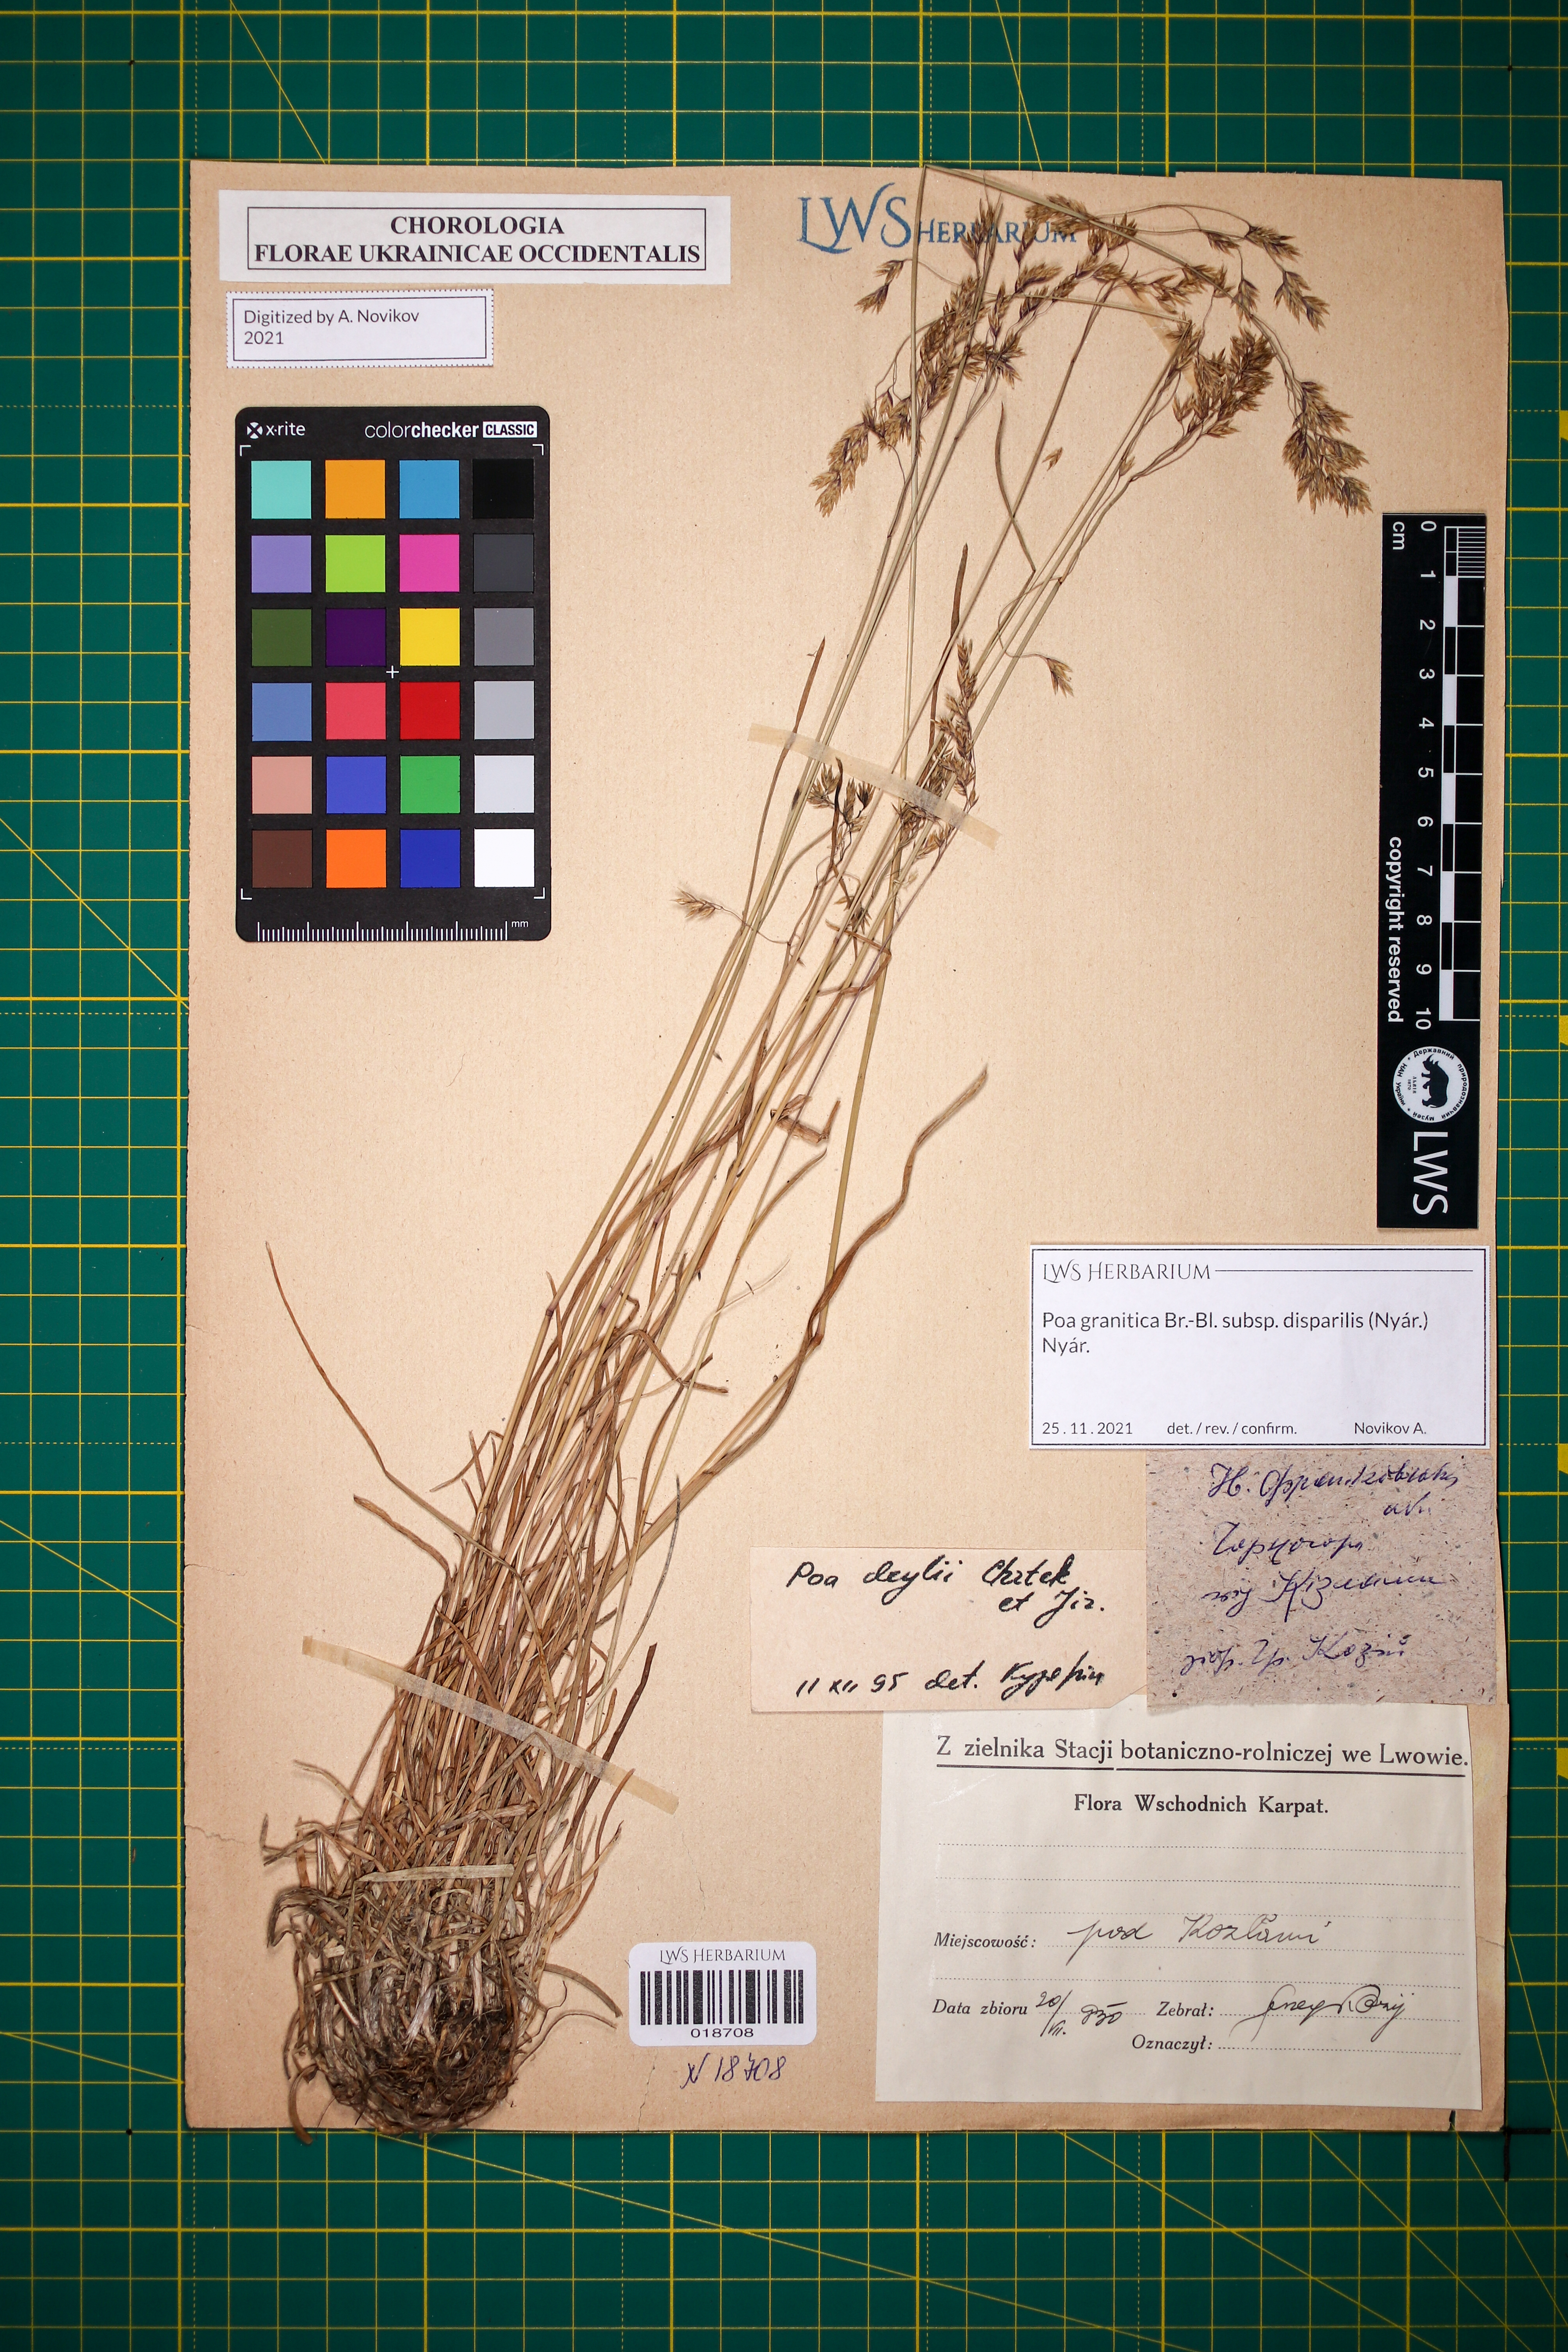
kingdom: Plantae
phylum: Tracheophyta
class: Liliopsida
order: Poales
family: Poaceae
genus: Poa
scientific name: Poa granitica
